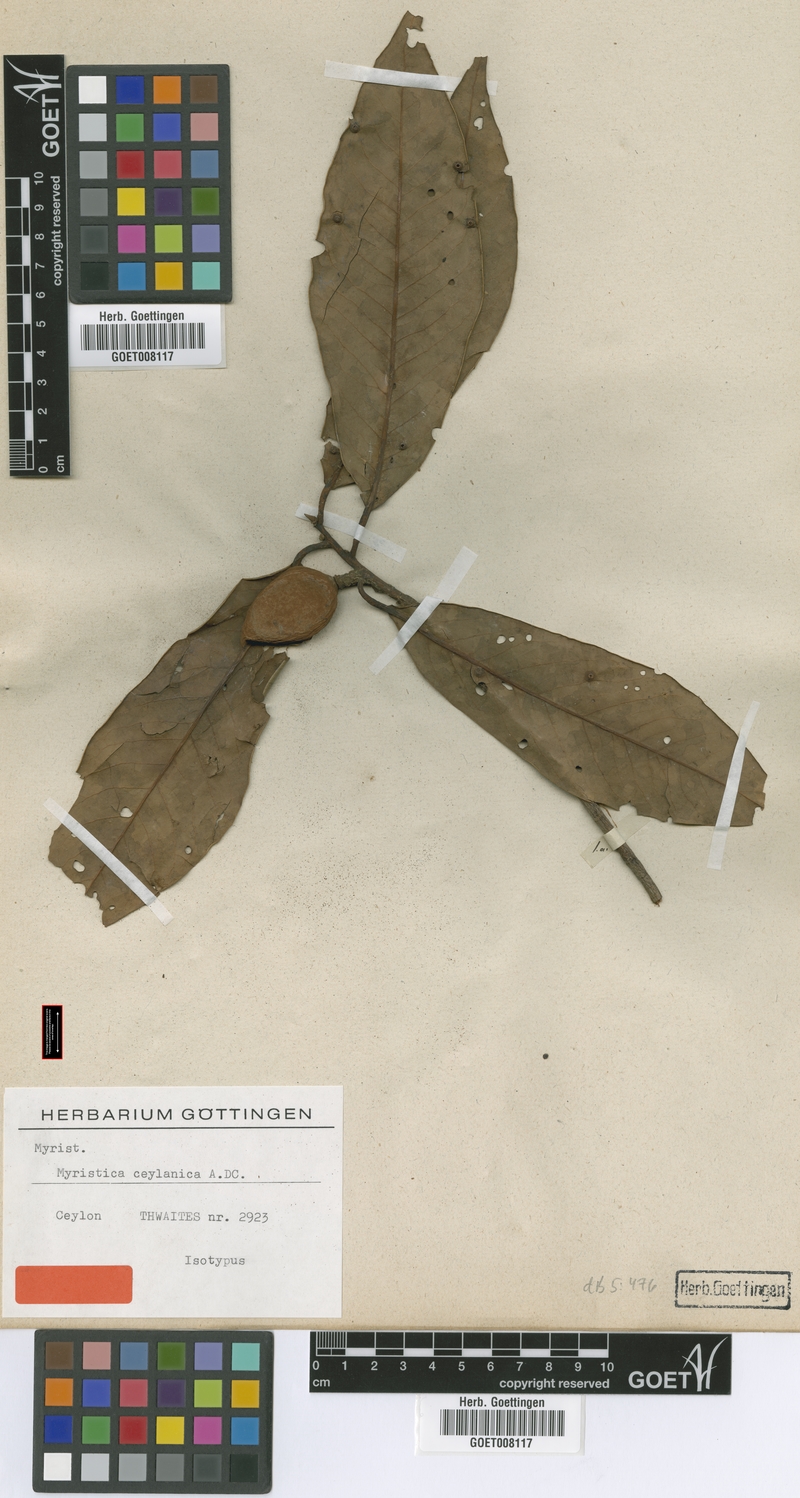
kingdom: Plantae
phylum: Tracheophyta
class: Magnoliopsida
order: Magnoliales
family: Myristicaceae
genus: Myristica
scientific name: Myristica ceylanica
